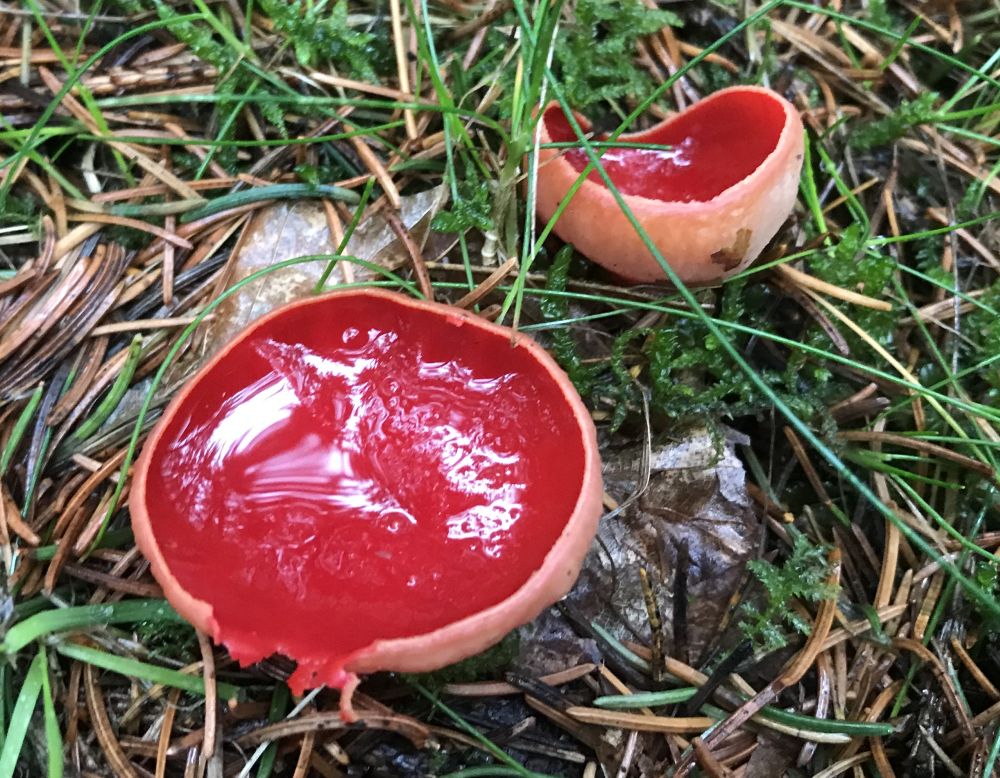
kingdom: Fungi
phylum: Ascomycota
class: Pezizomycetes
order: Pezizales
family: Sarcoscyphaceae
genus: Sarcoscypha
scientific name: Sarcoscypha austriaca
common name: krølhåret pragtbæger
